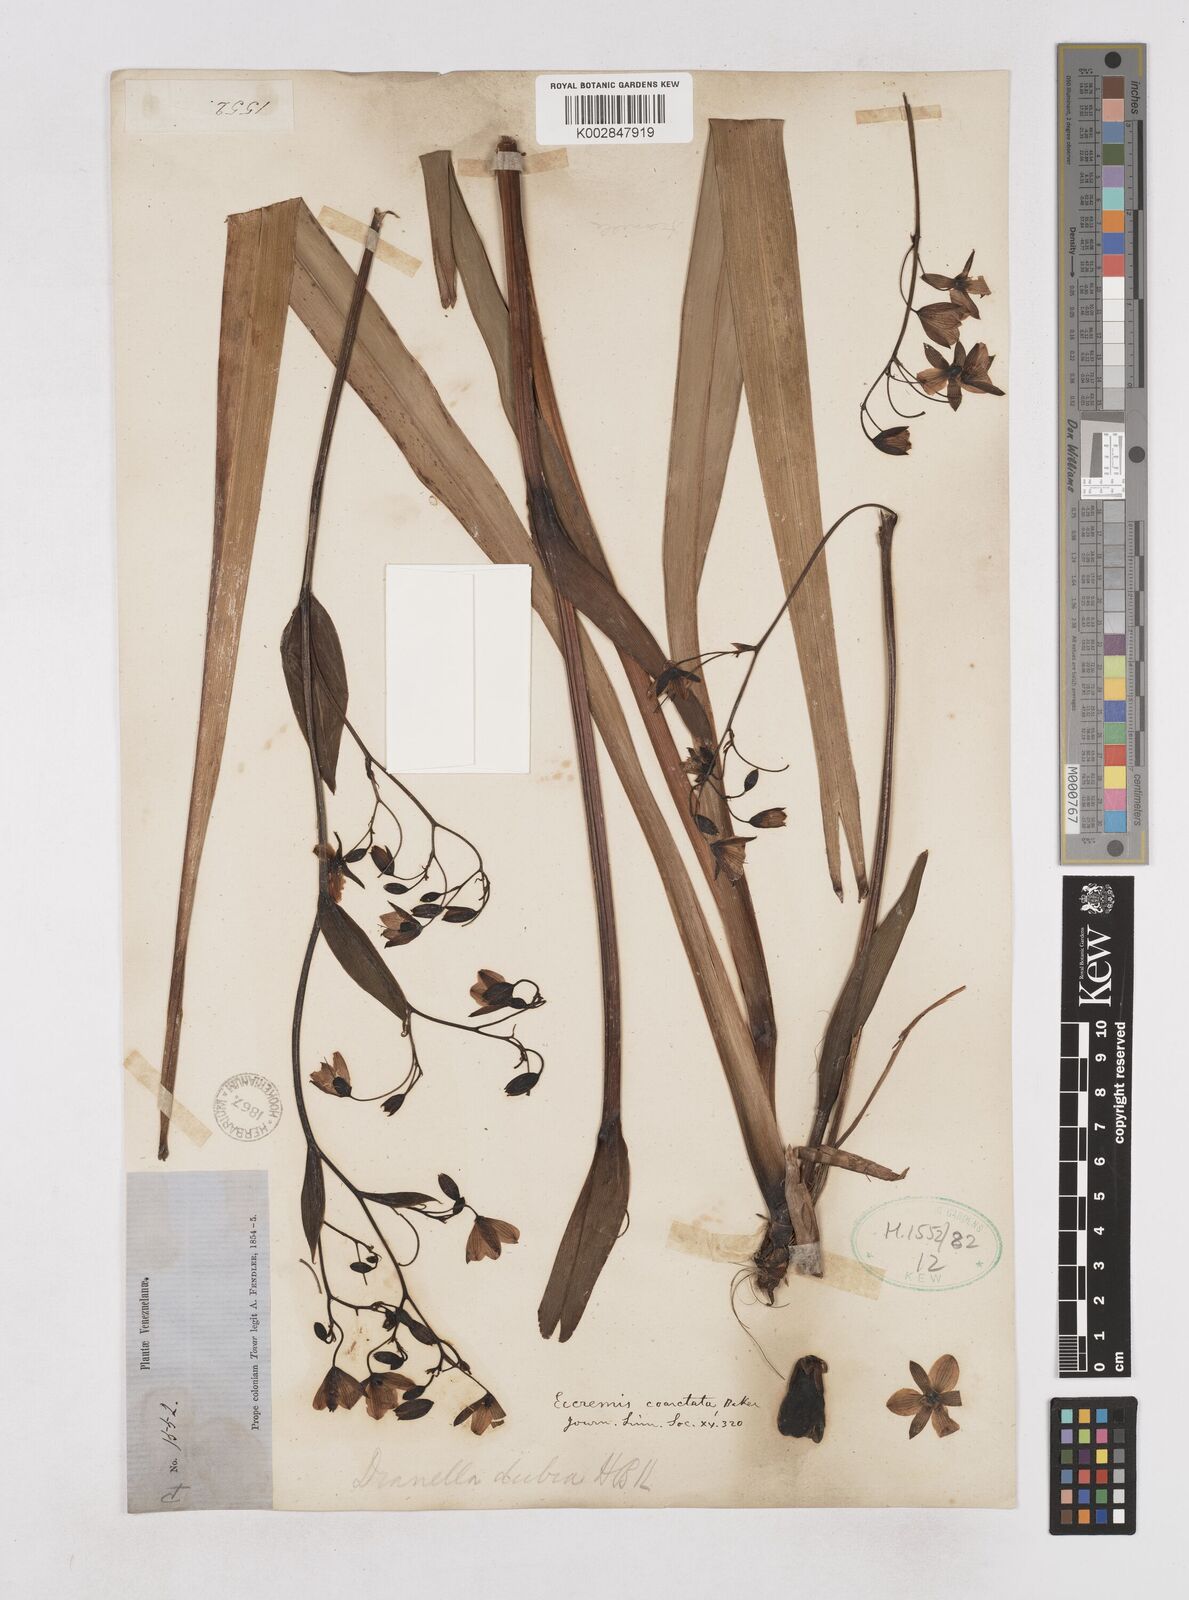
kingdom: Plantae
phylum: Tracheophyta
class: Liliopsida
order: Asparagales
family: Asphodelaceae
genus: Excremis
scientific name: Excremis coarctata
